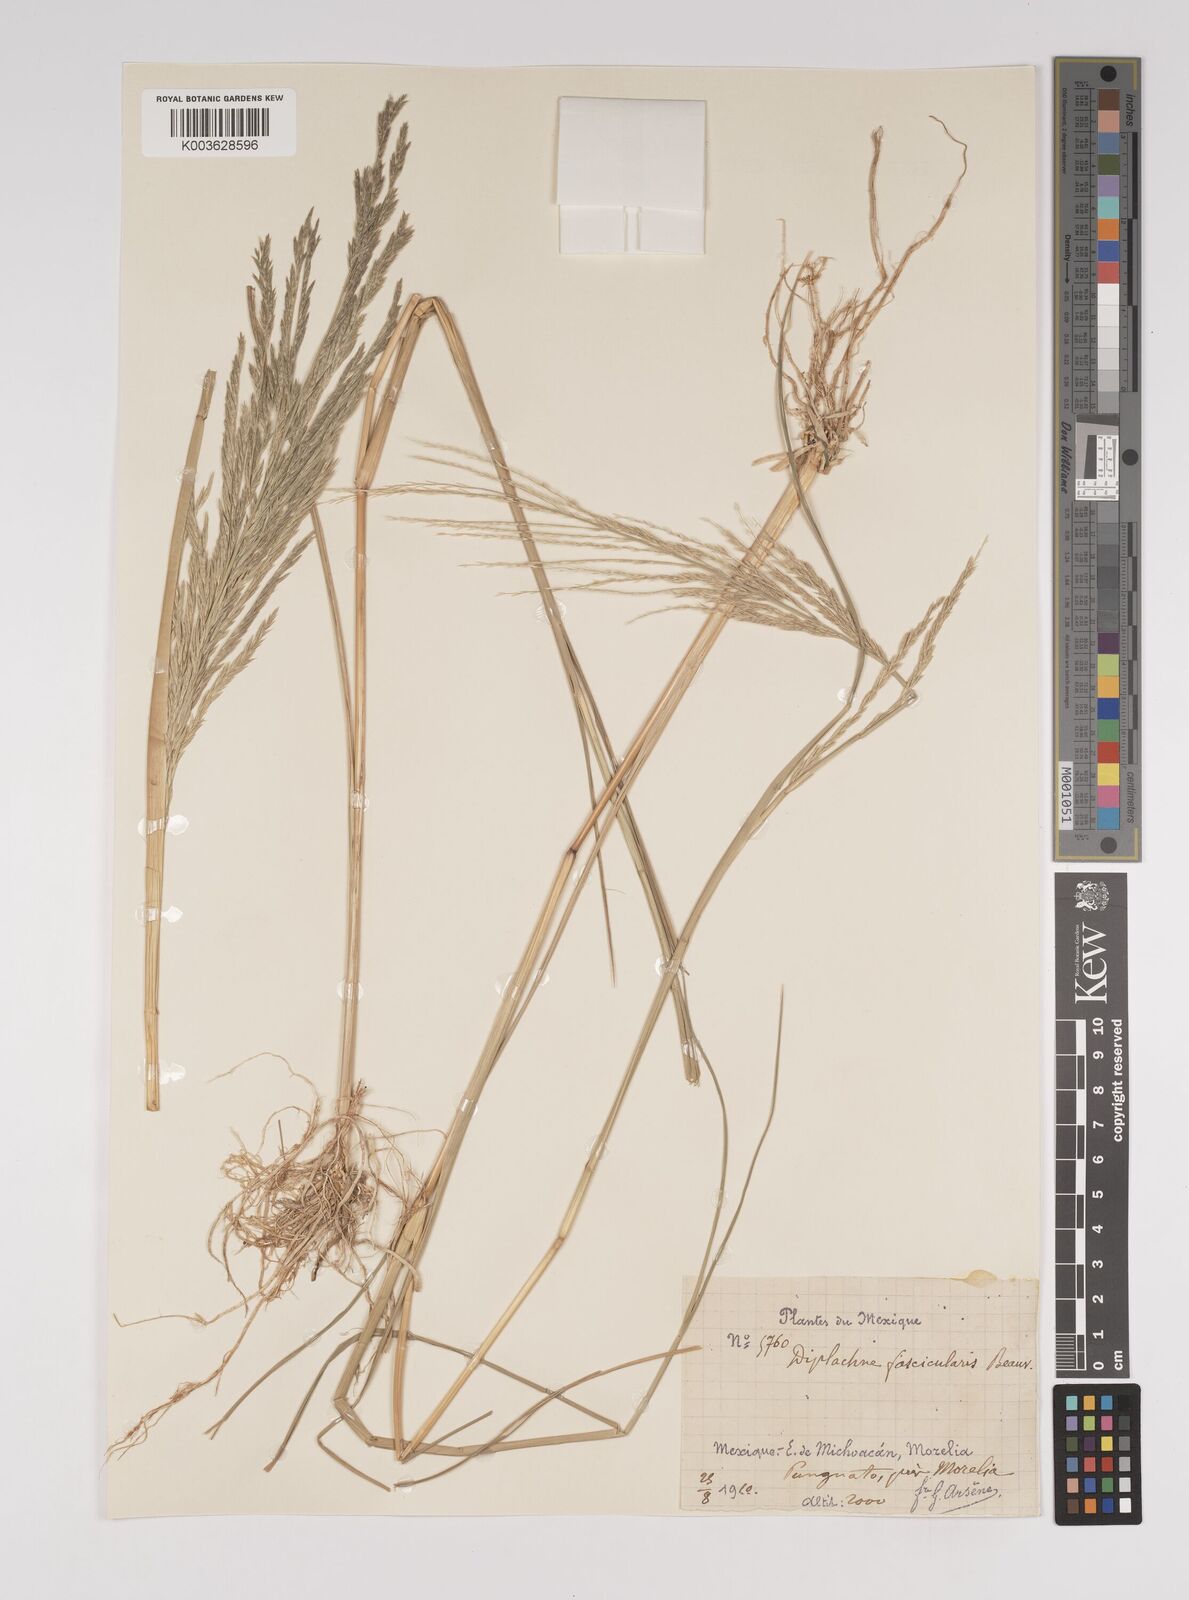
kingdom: Plantae
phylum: Tracheophyta
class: Liliopsida
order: Poales
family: Poaceae
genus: Diplachne
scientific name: Diplachne fusca
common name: Brown beetle grass
